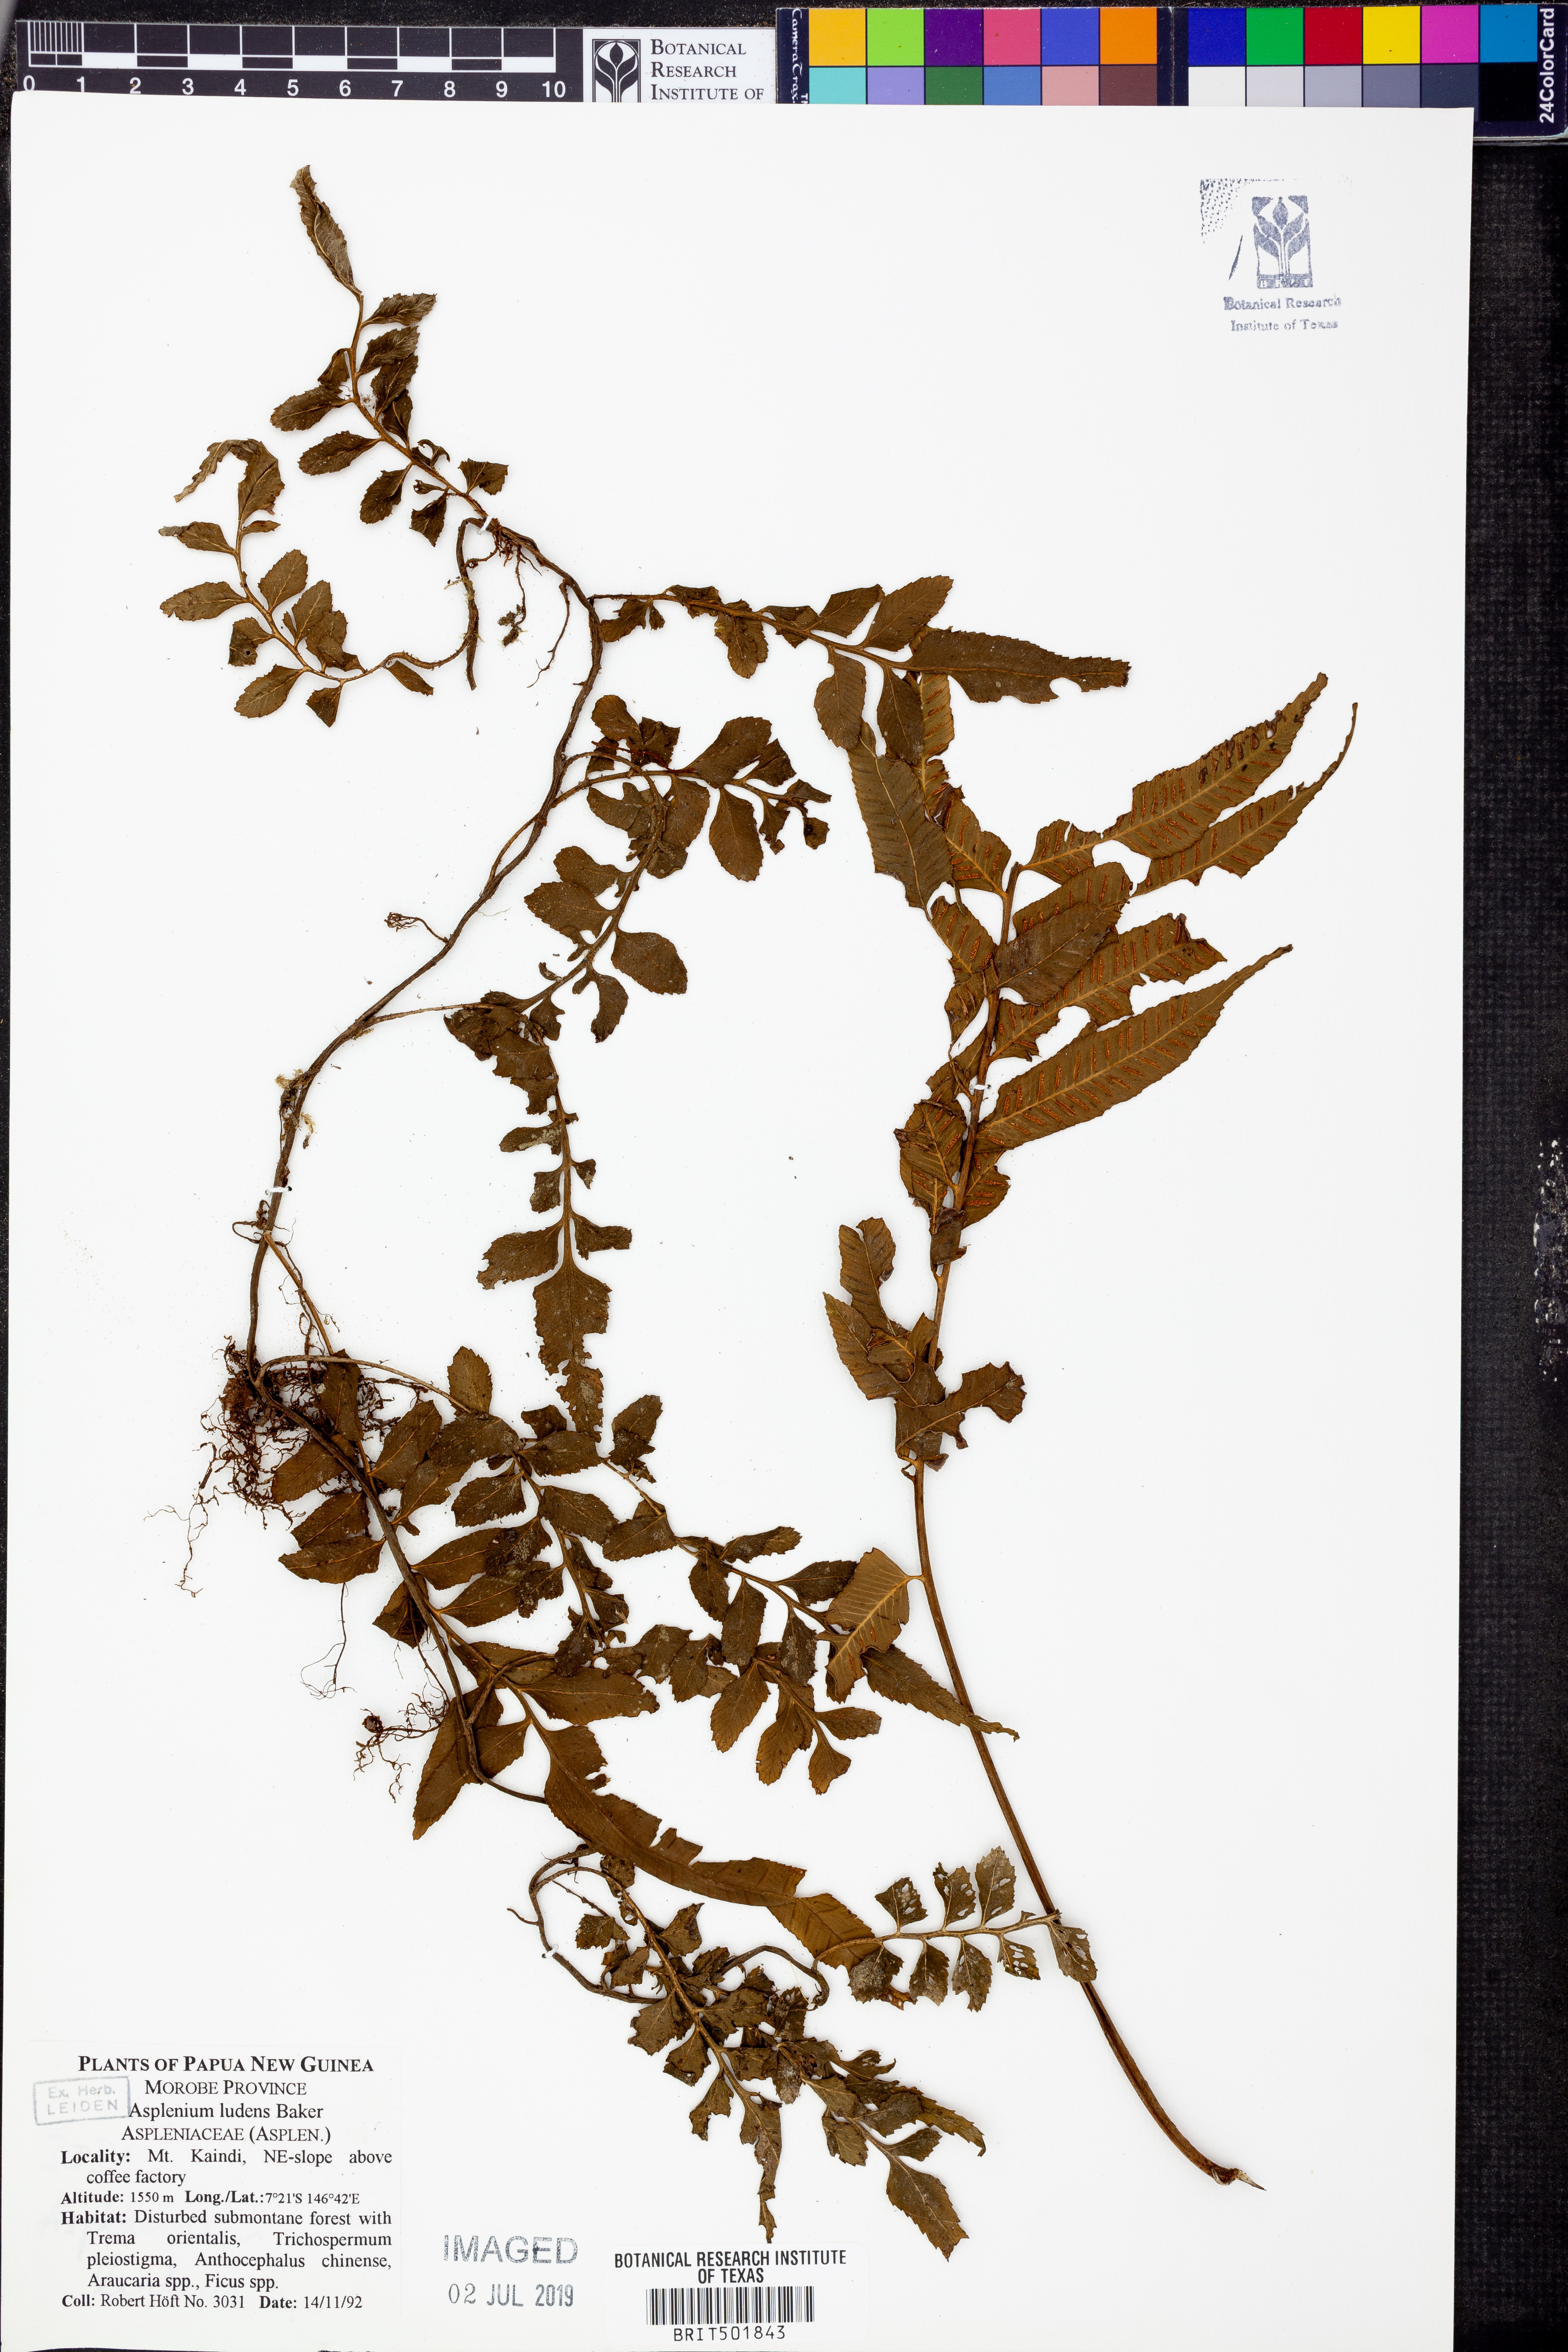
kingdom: Plantae
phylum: Tracheophyta
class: Polypodiopsida
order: Polypodiales
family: Aspleniaceae
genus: Asplenium
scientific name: Asplenium marattioides
